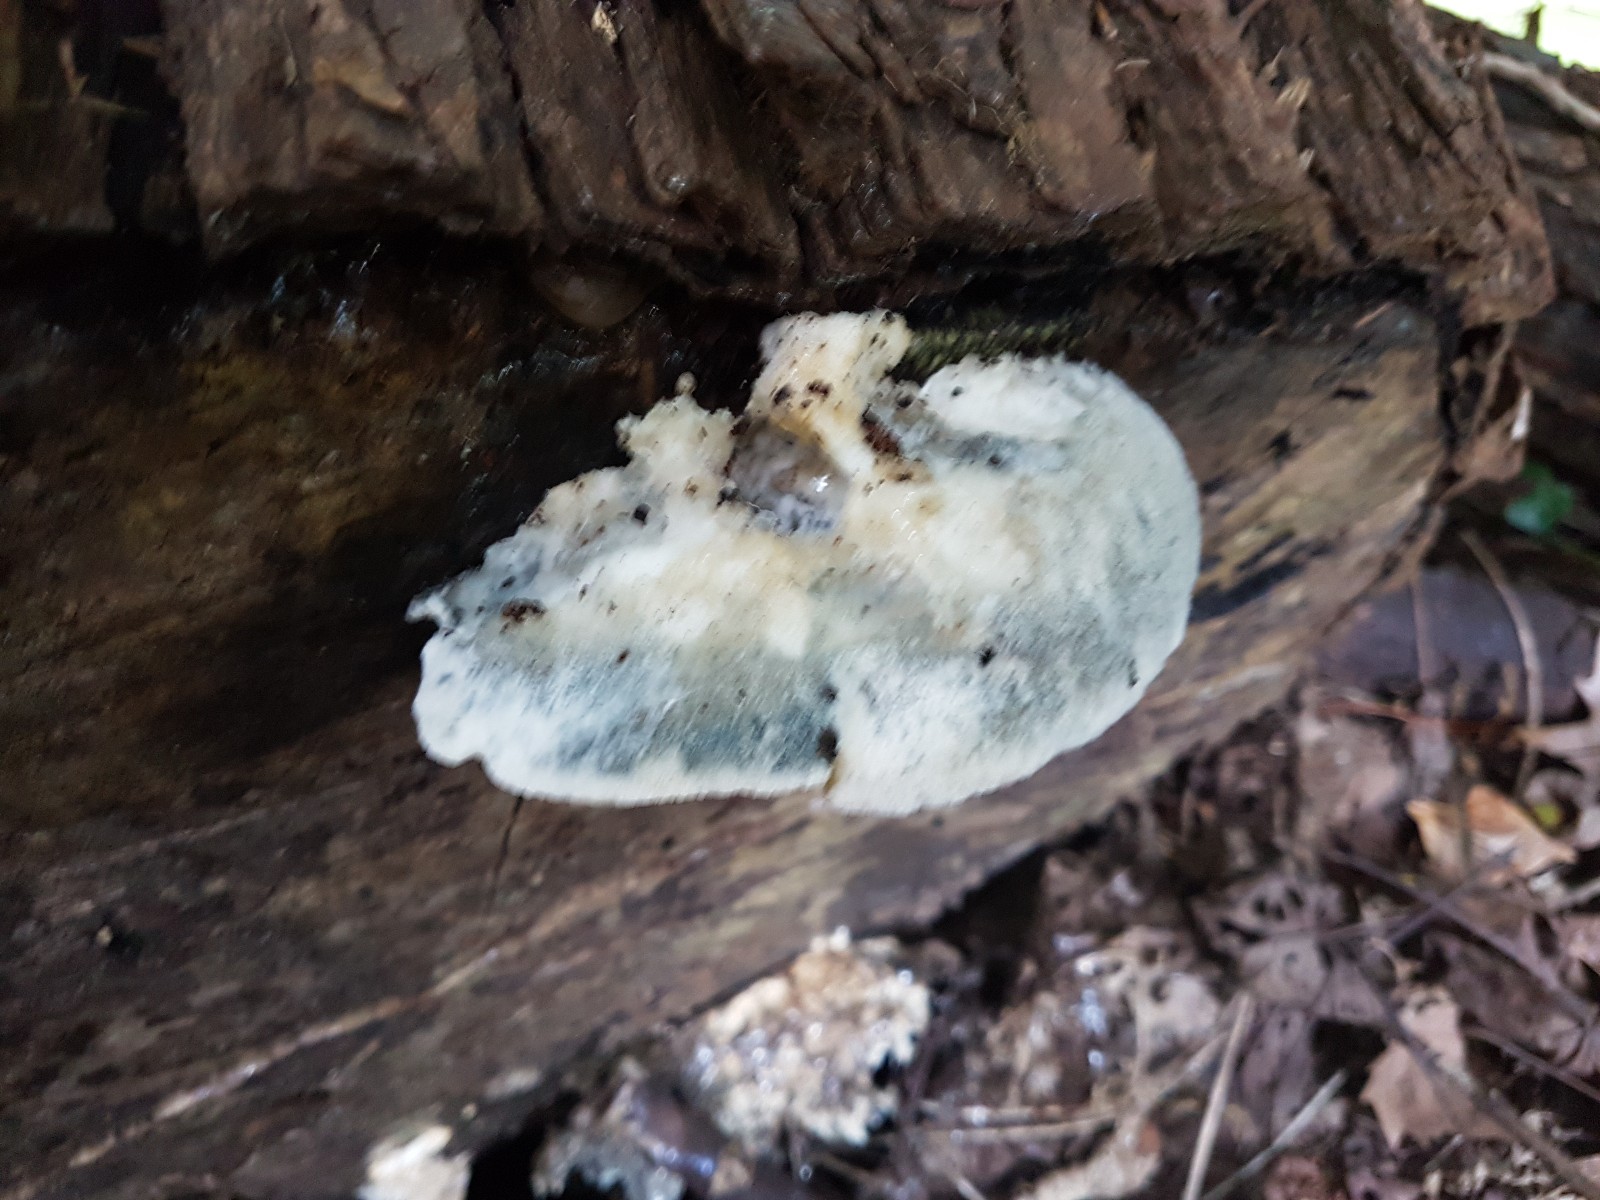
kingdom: Fungi
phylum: Basidiomycota
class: Agaricomycetes
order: Polyporales
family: Dacryobolaceae
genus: Postia
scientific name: Postia
